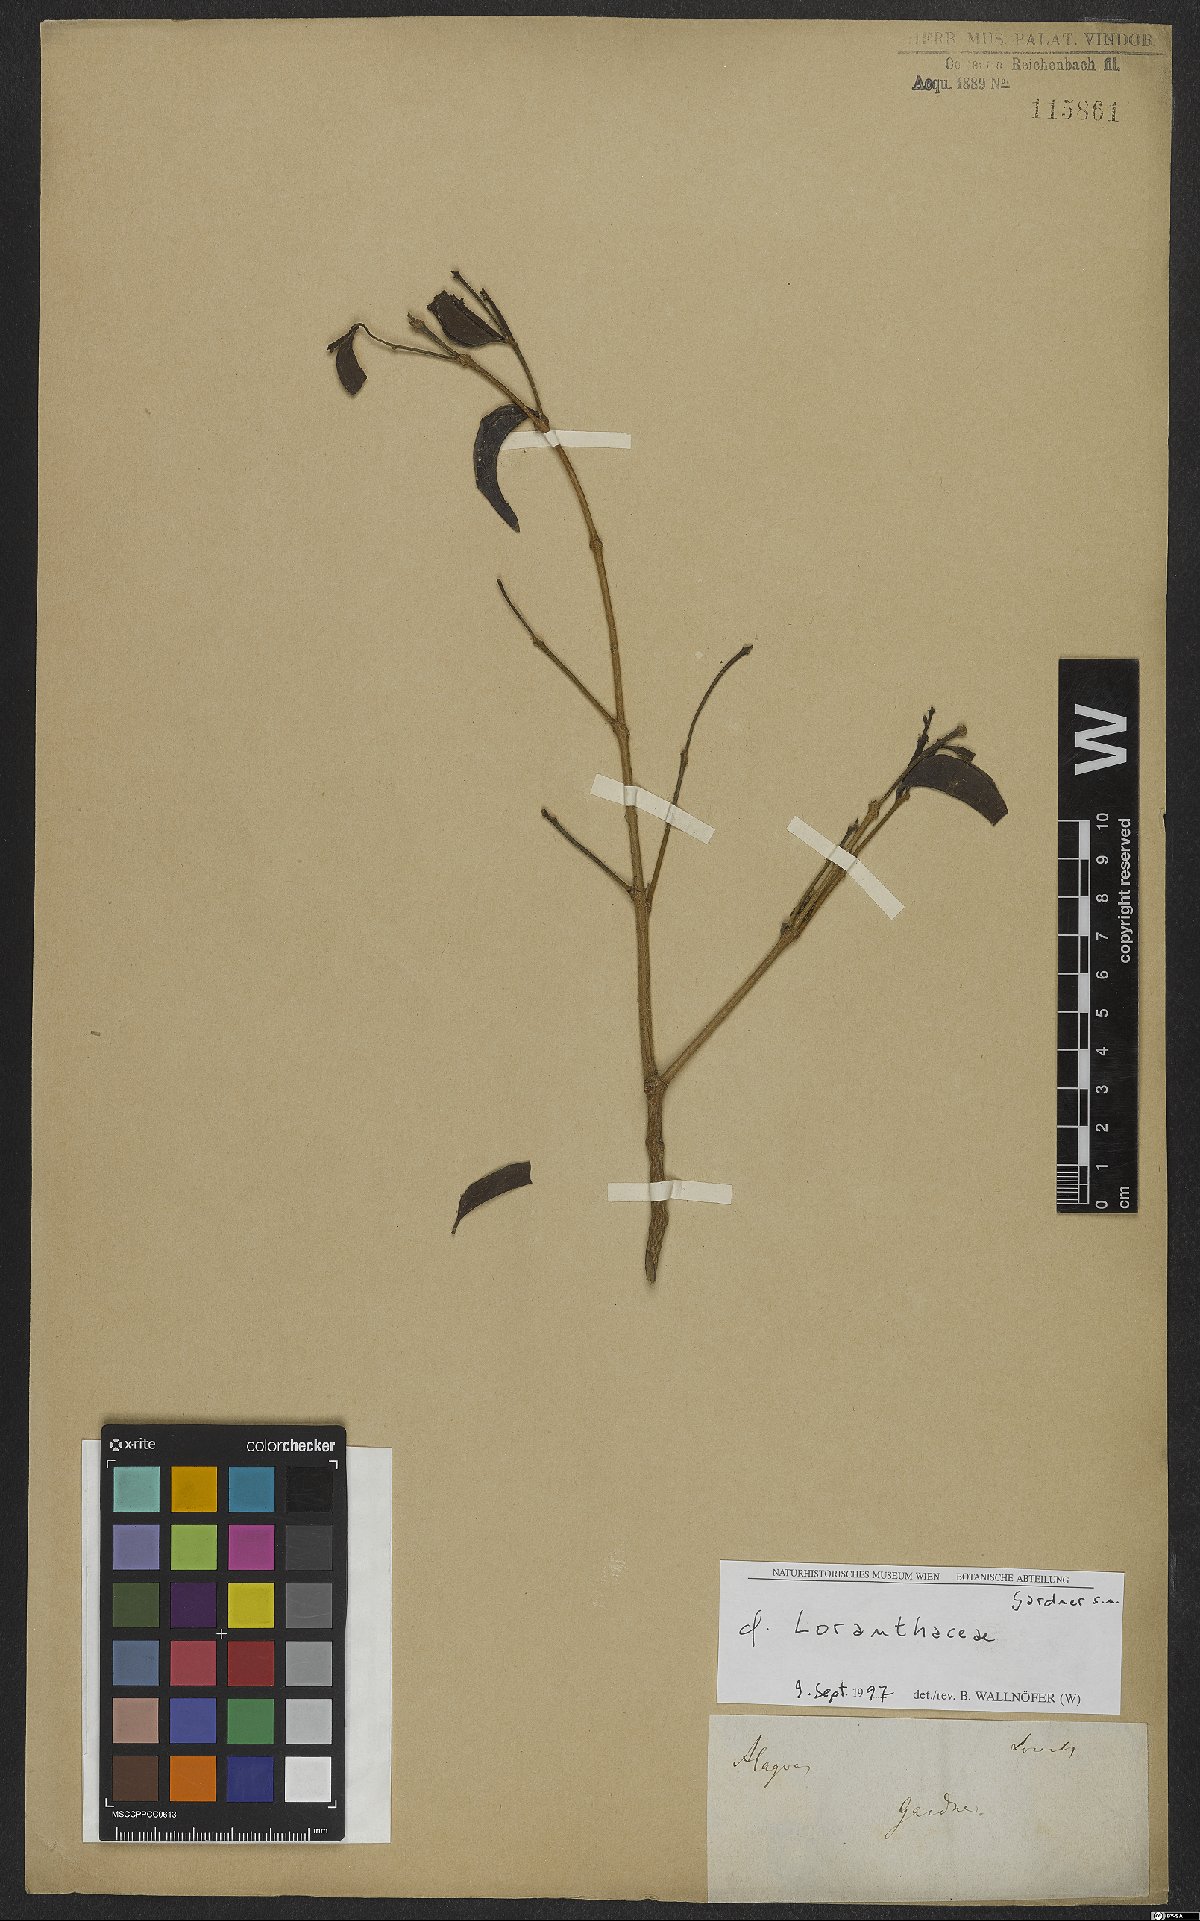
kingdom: Plantae
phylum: Tracheophyta
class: Magnoliopsida
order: Santalales
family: Loranthaceae
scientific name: Loranthaceae
